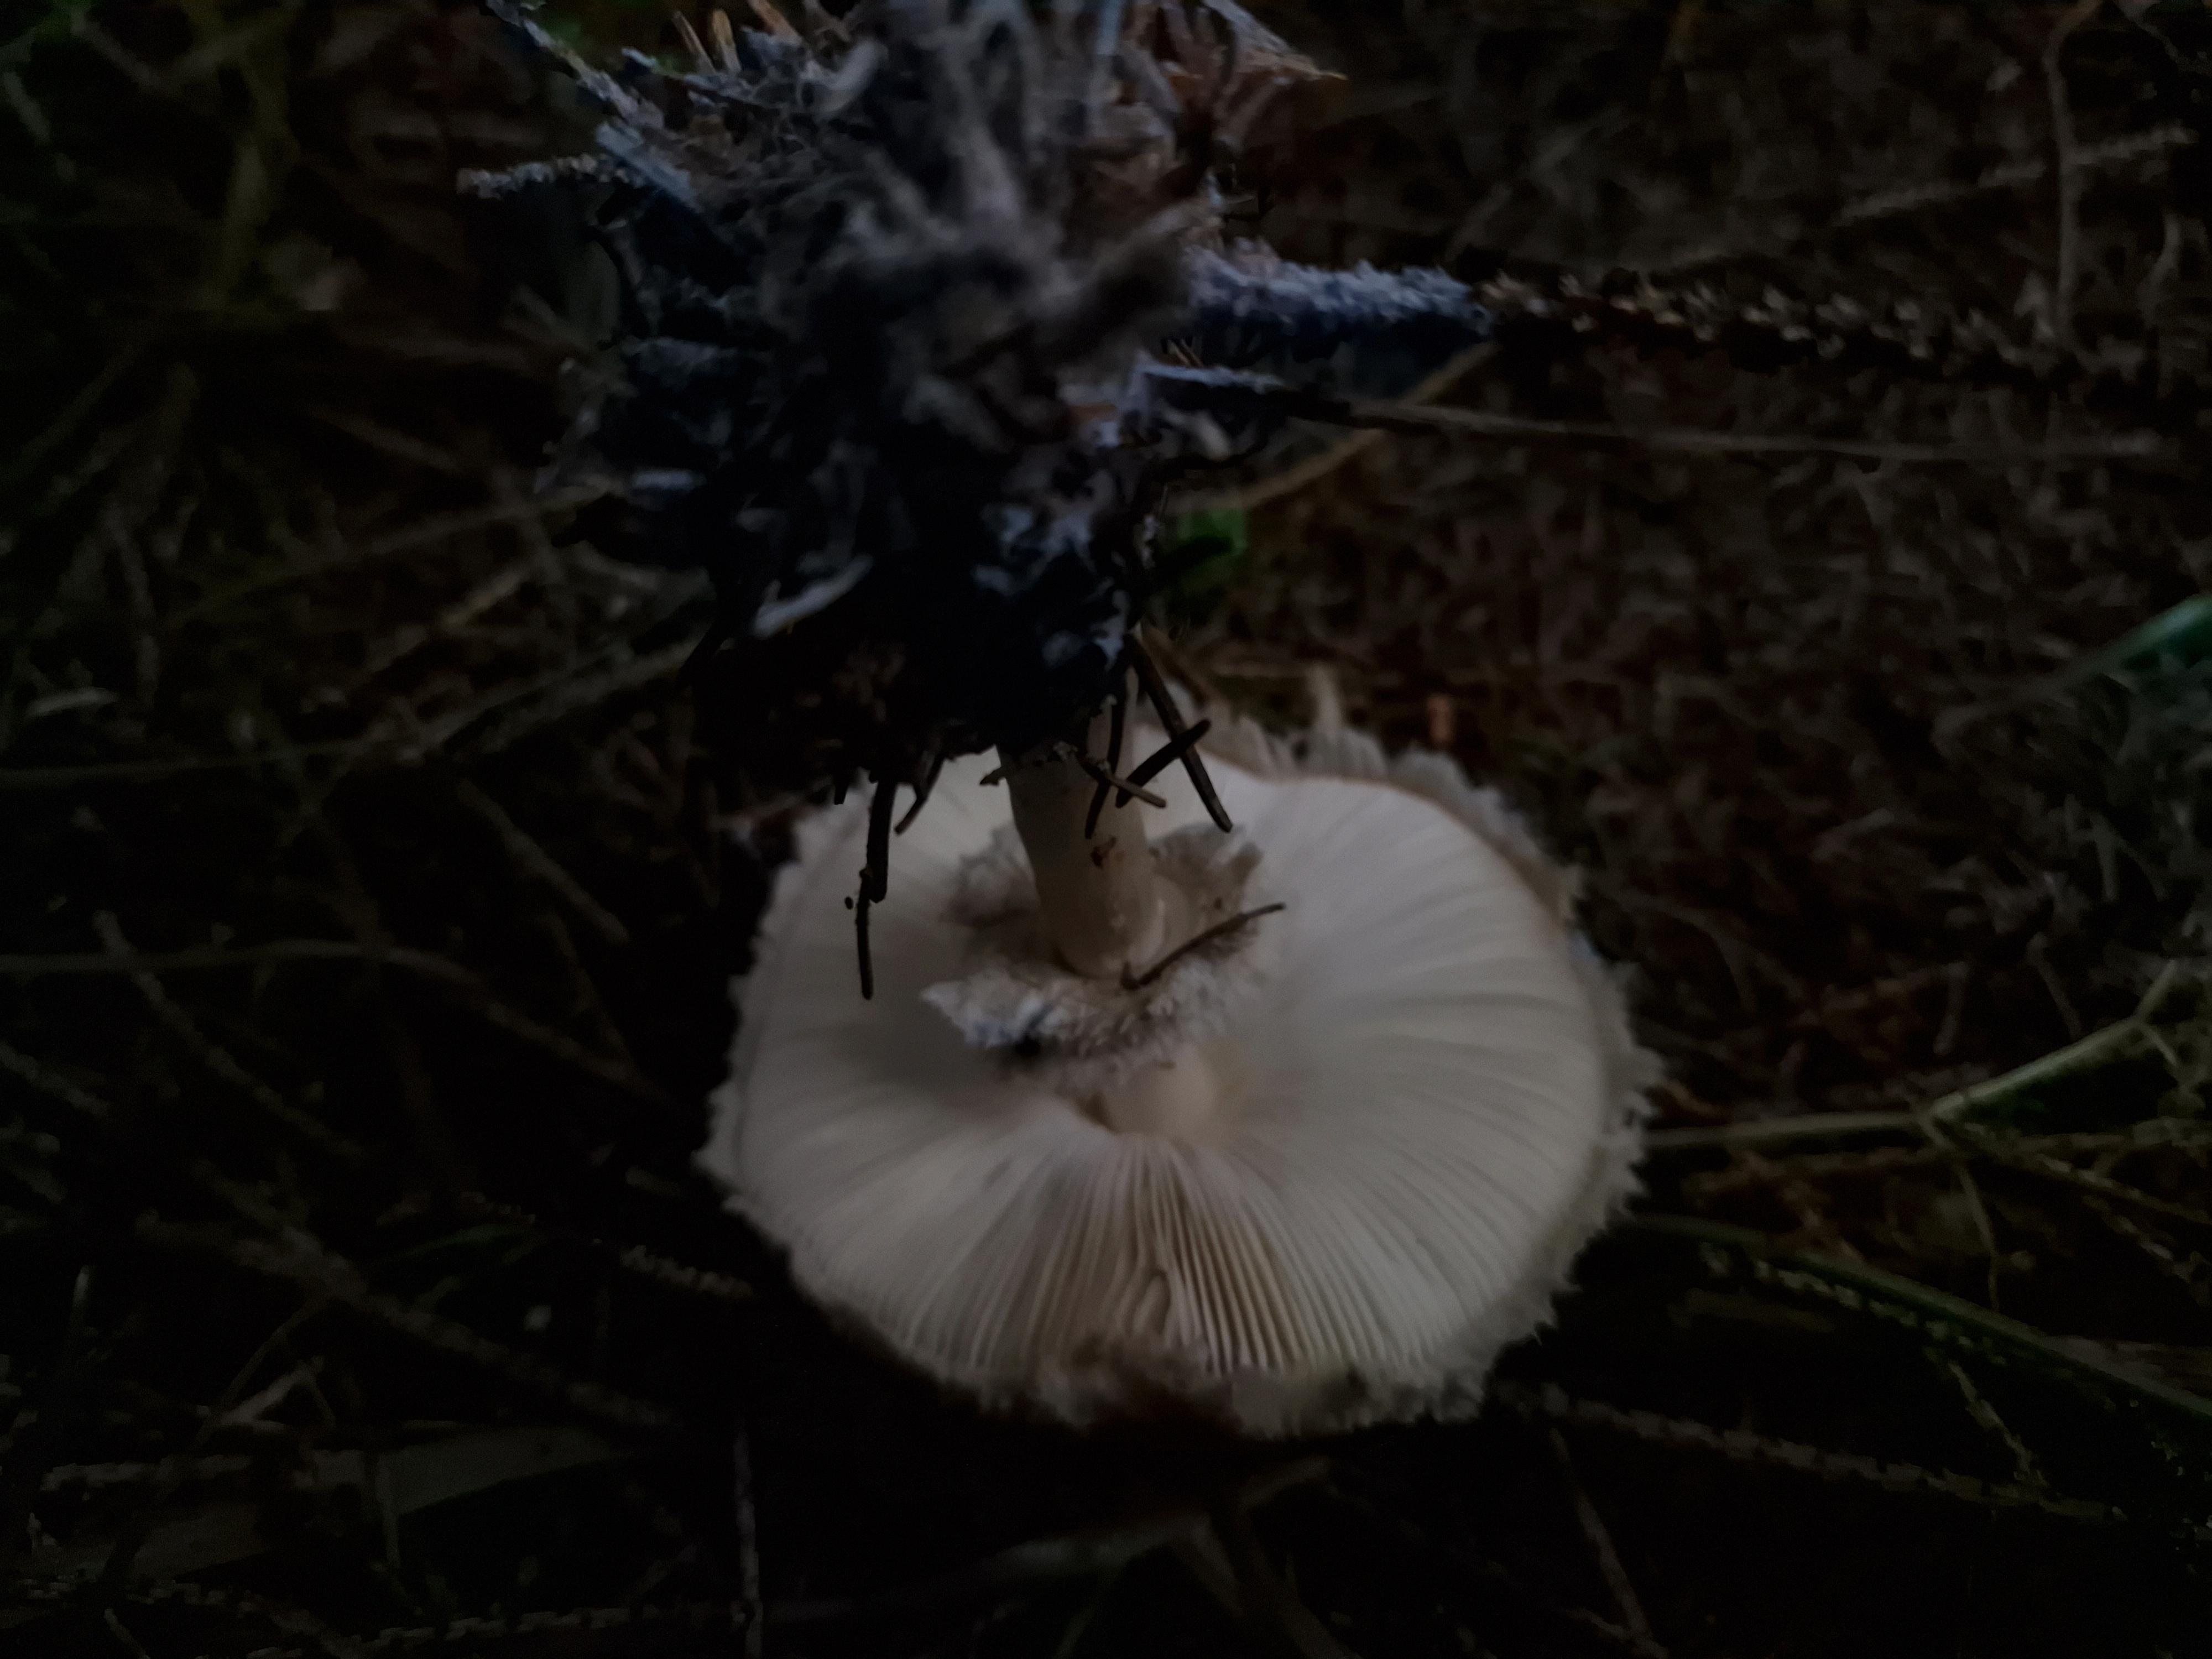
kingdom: Fungi
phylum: Basidiomycota
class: Agaricomycetes
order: Agaricales
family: Agaricaceae
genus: Chlorophyllum
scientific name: Chlorophyllum
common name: rabarberhat
